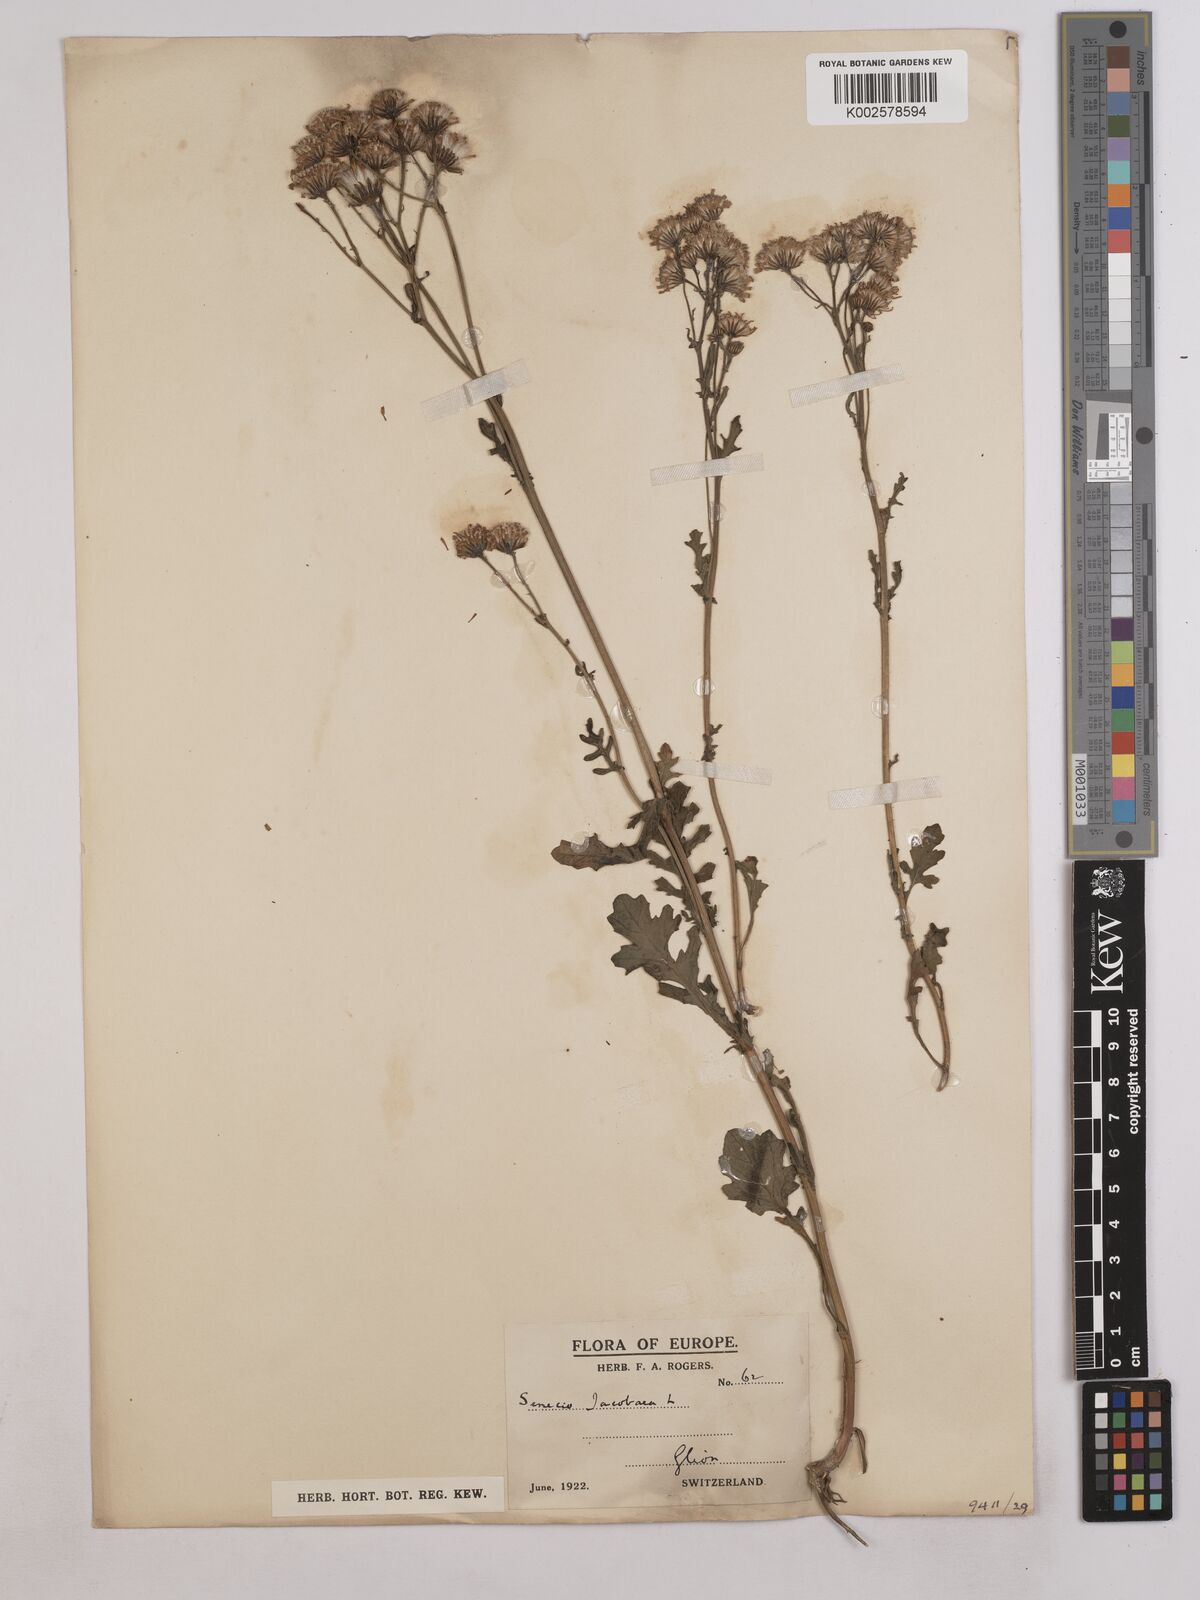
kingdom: Plantae
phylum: Tracheophyta
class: Magnoliopsida
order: Asterales
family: Asteraceae
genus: Jacobaea
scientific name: Jacobaea vulgaris
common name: Stinking willie
